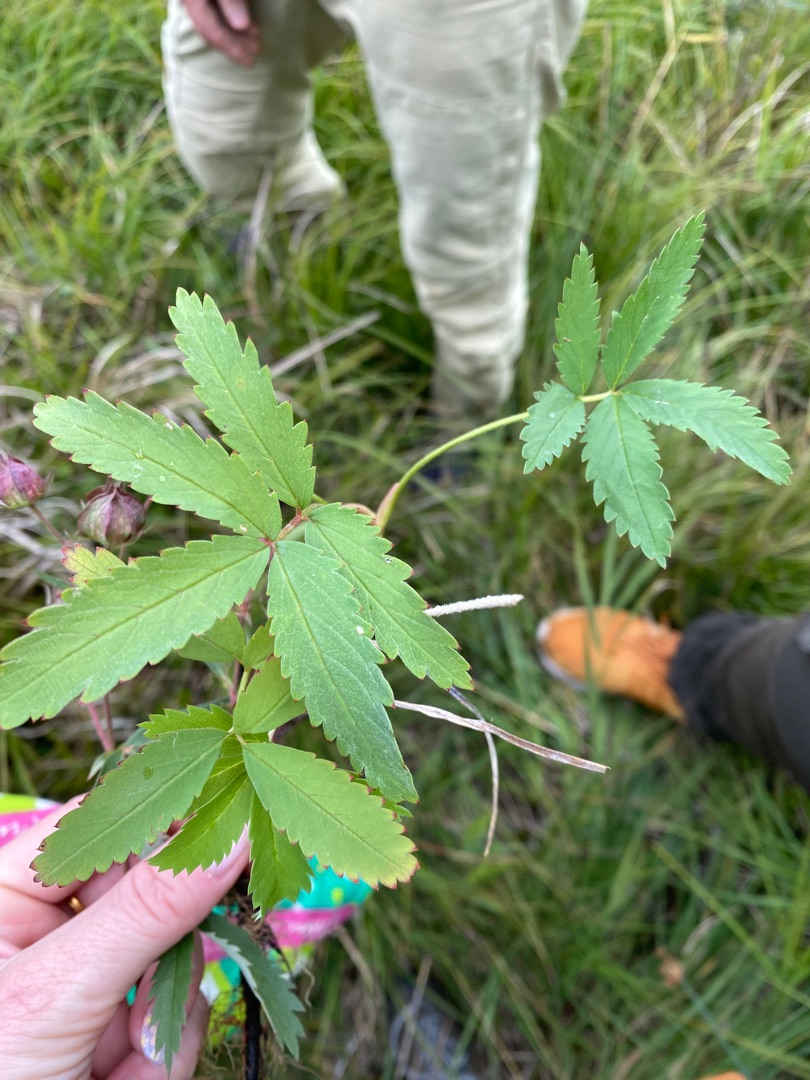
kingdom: Plantae
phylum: Tracheophyta
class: Magnoliopsida
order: Rosales
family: Rosaceae
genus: Comarum
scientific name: Comarum palustre
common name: Kragefod
